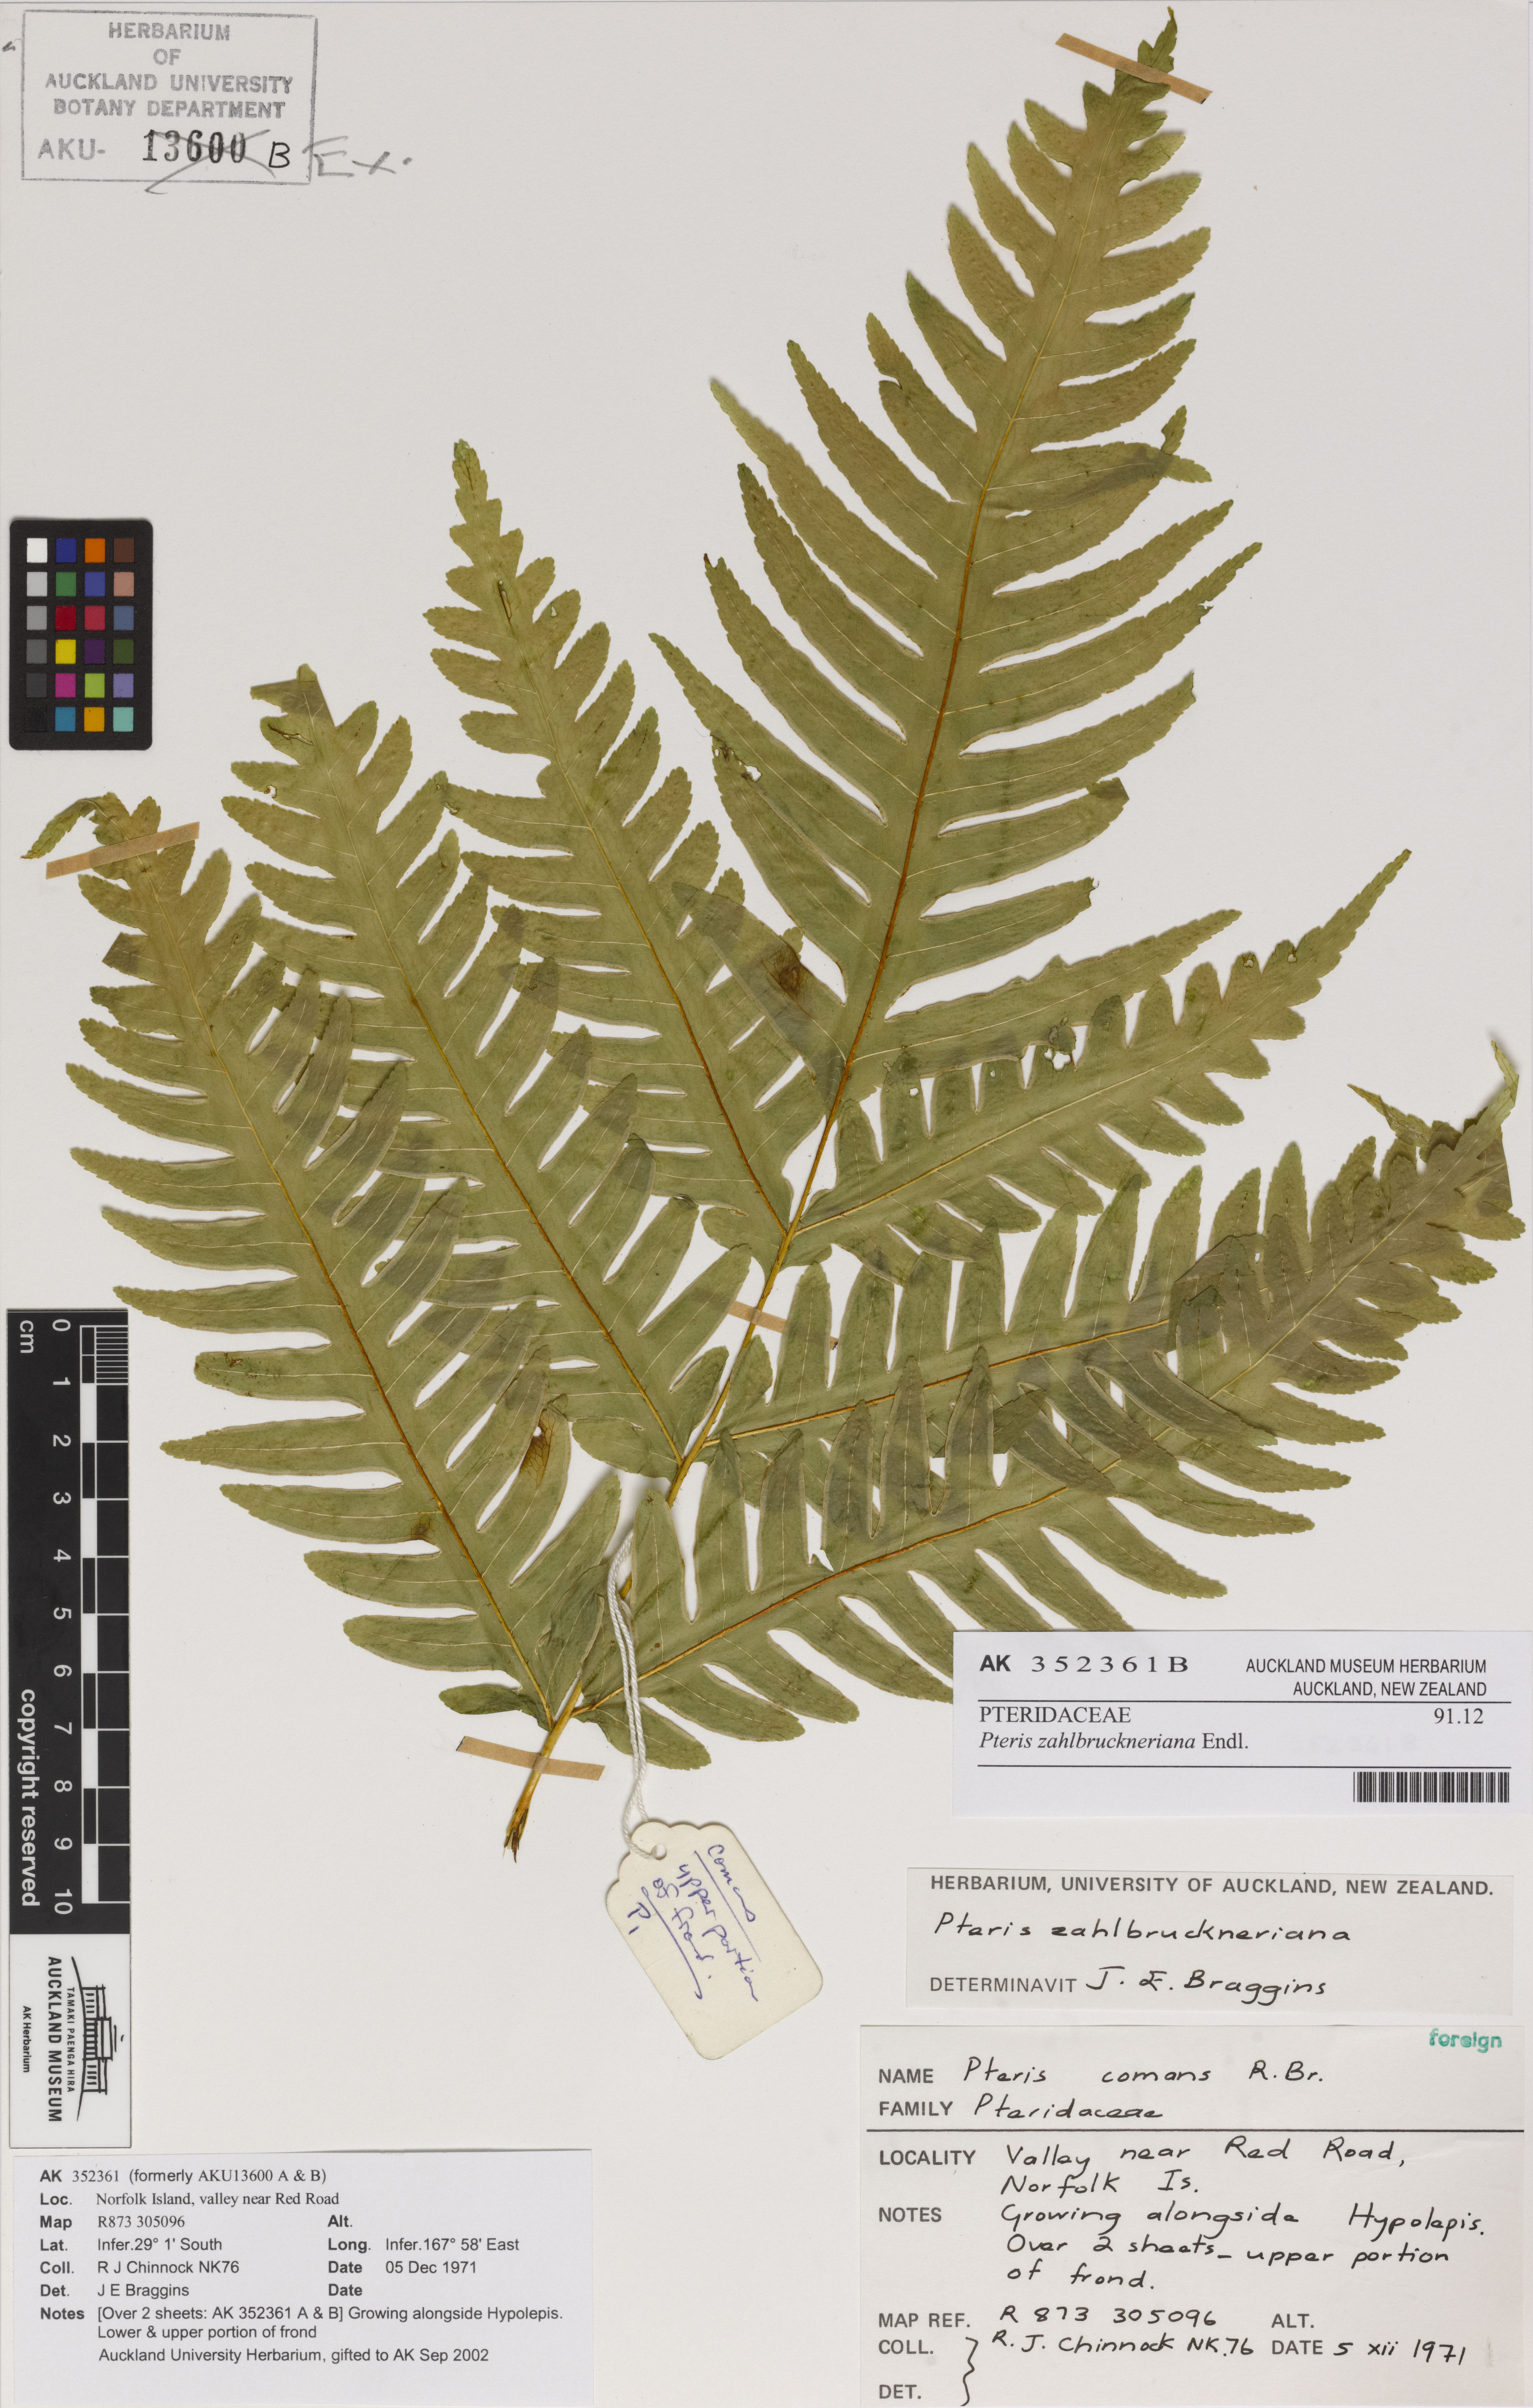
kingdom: Plantae
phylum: Tracheophyta
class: Polypodiopsida
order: Polypodiales
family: Pteridaceae
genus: Pteris
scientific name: Pteris zahlbruckneriana
